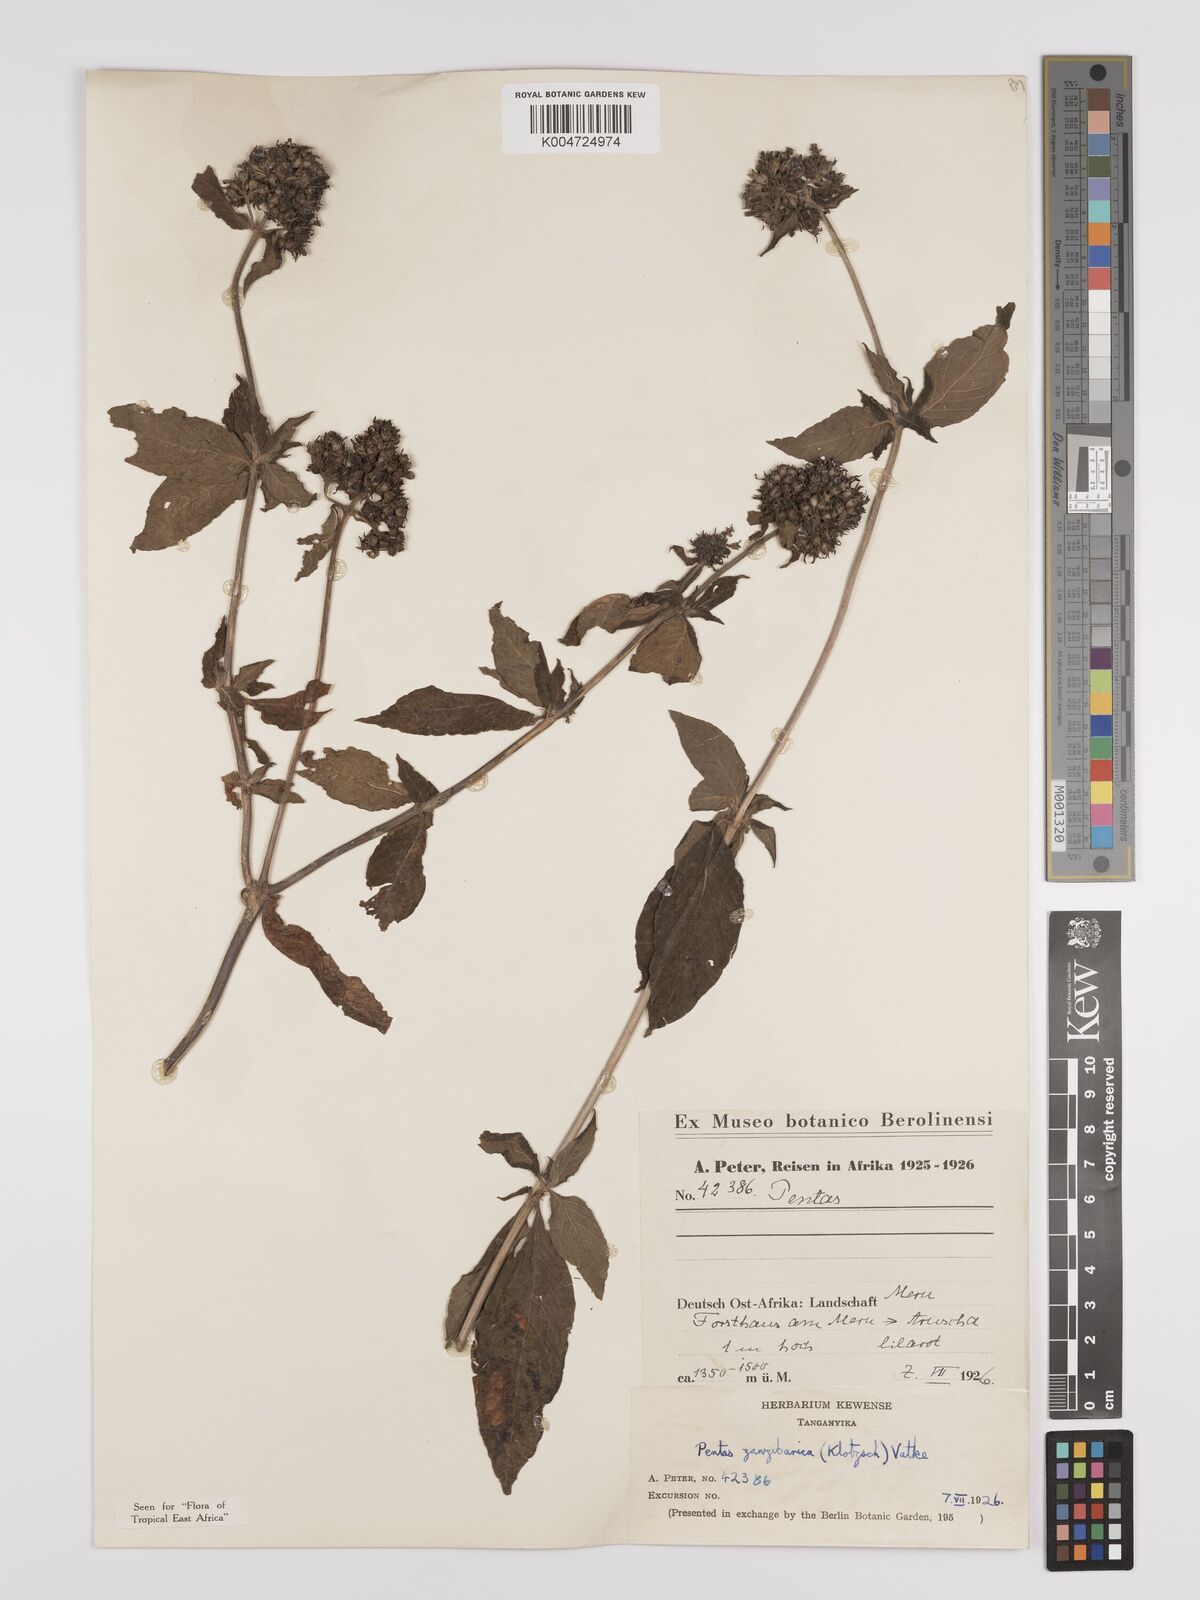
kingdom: Plantae
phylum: Tracheophyta
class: Magnoliopsida
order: Gentianales
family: Rubiaceae
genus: Pentas
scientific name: Pentas zanzibarica
